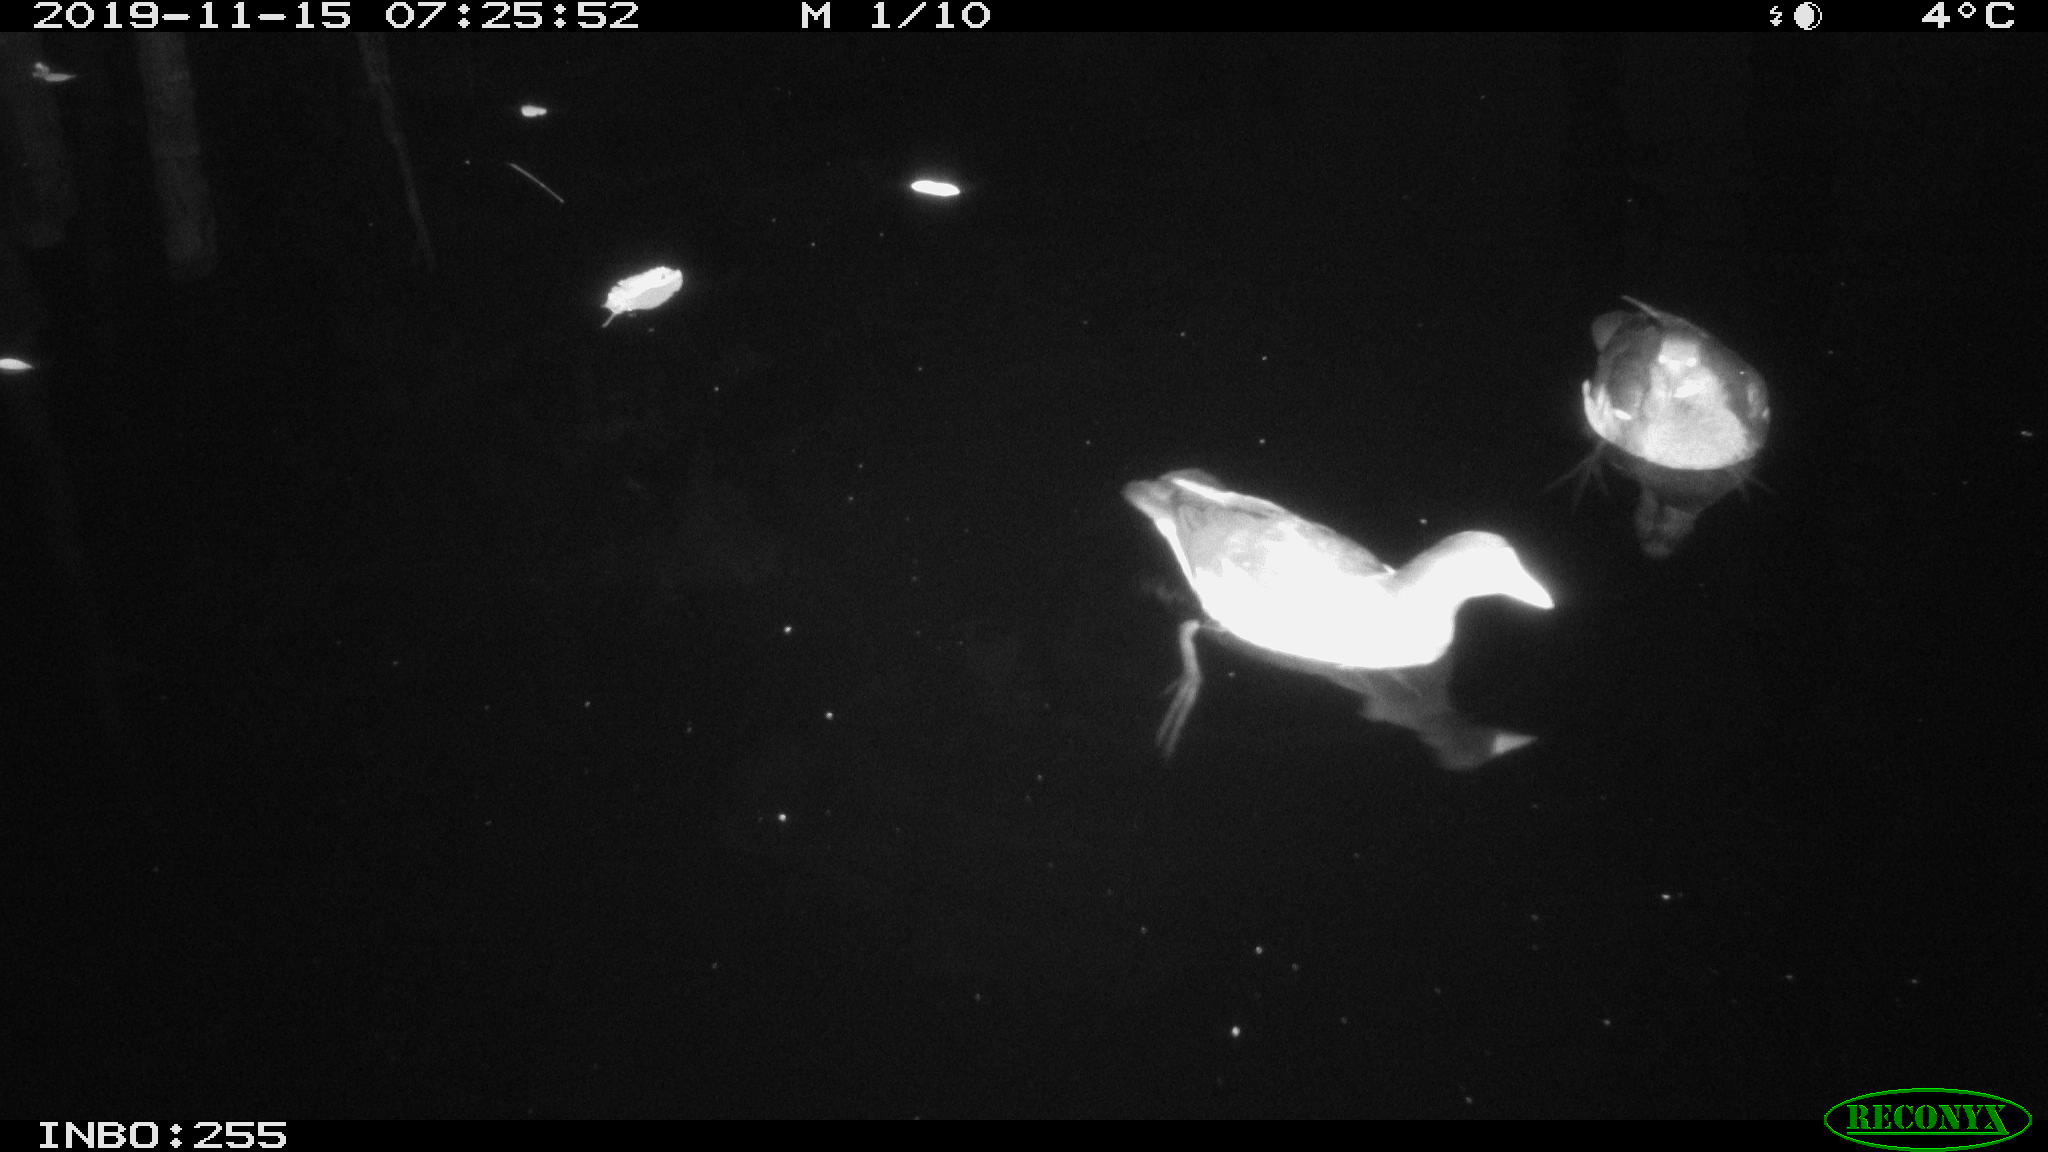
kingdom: Animalia
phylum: Chordata
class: Aves
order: Gruiformes
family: Rallidae
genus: Gallinula
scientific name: Gallinula chloropus
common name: Common moorhen
